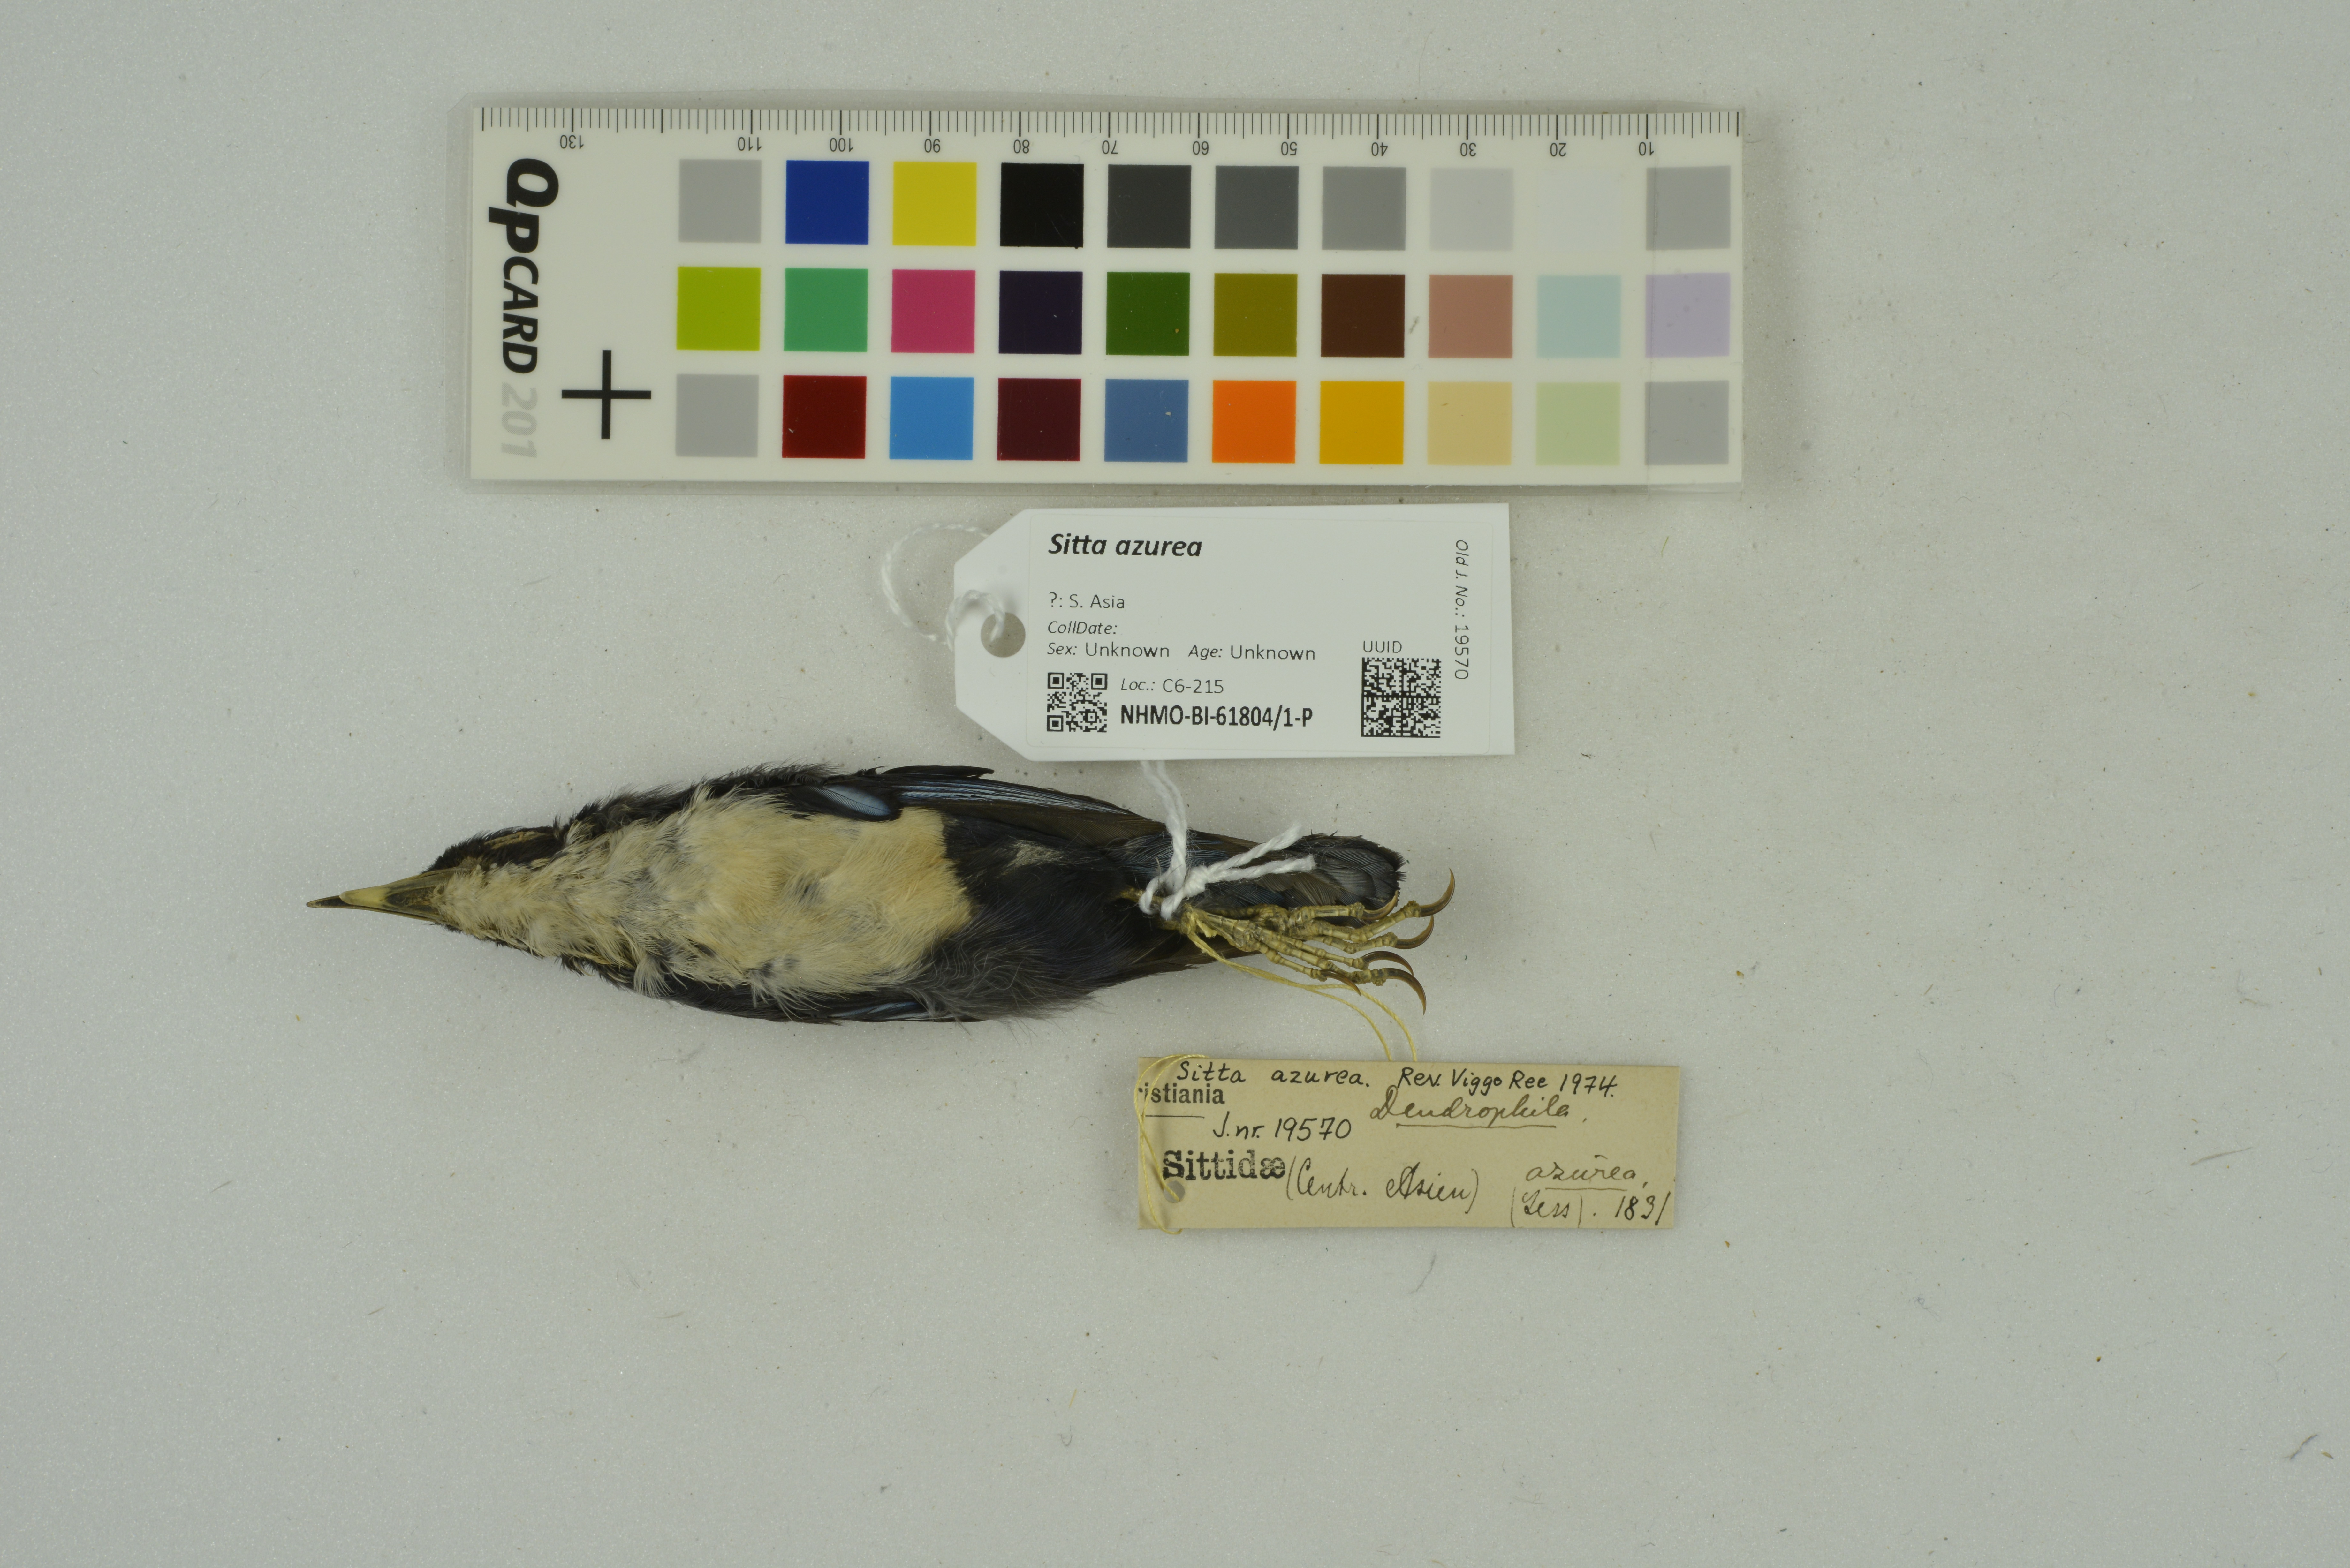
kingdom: Animalia
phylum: Chordata
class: Aves
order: Passeriformes
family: Sittidae
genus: Sitta
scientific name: Sitta azurea
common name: Blue nuthatch
